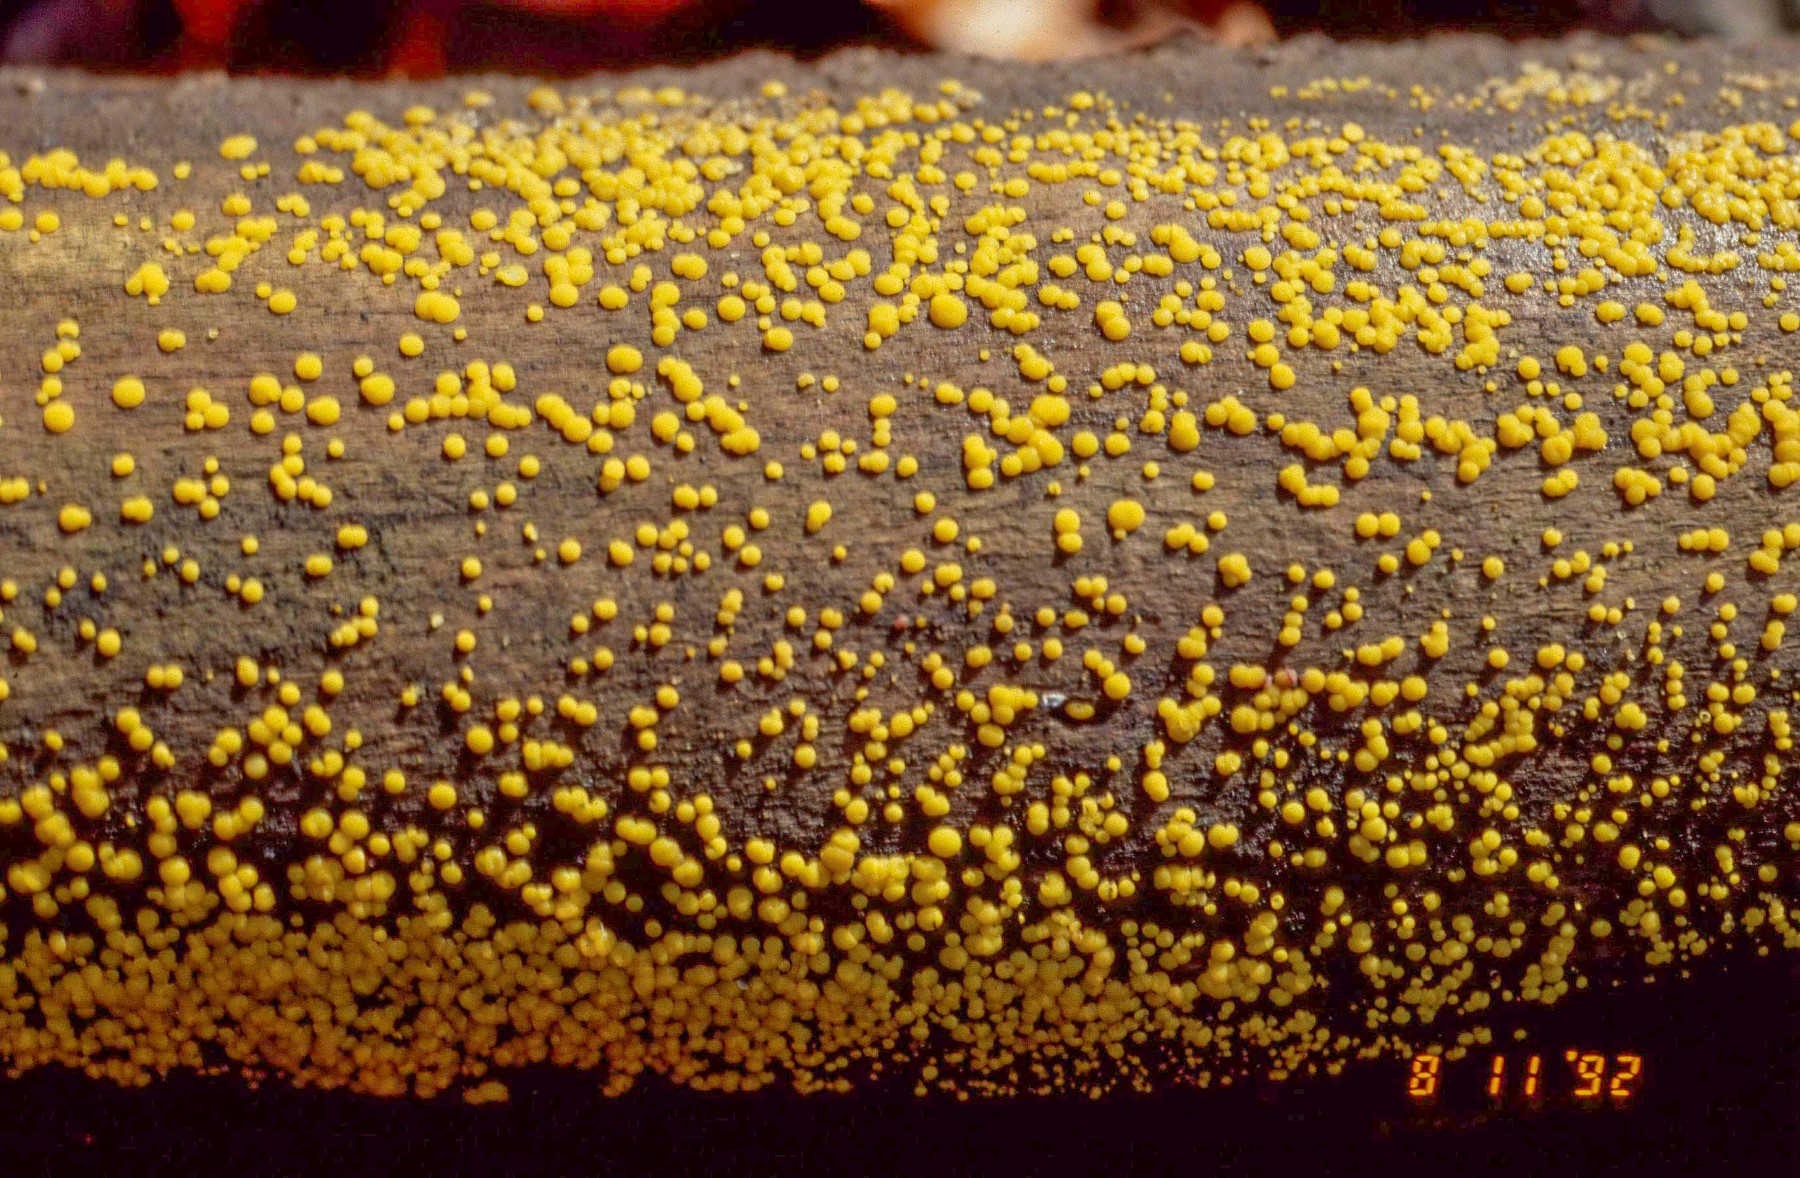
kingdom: Fungi
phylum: Ascomycota
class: Leotiomycetes
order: Helotiales
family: Pezizellaceae
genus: Calycina
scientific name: Calycina citrina
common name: almindelig gulskive
